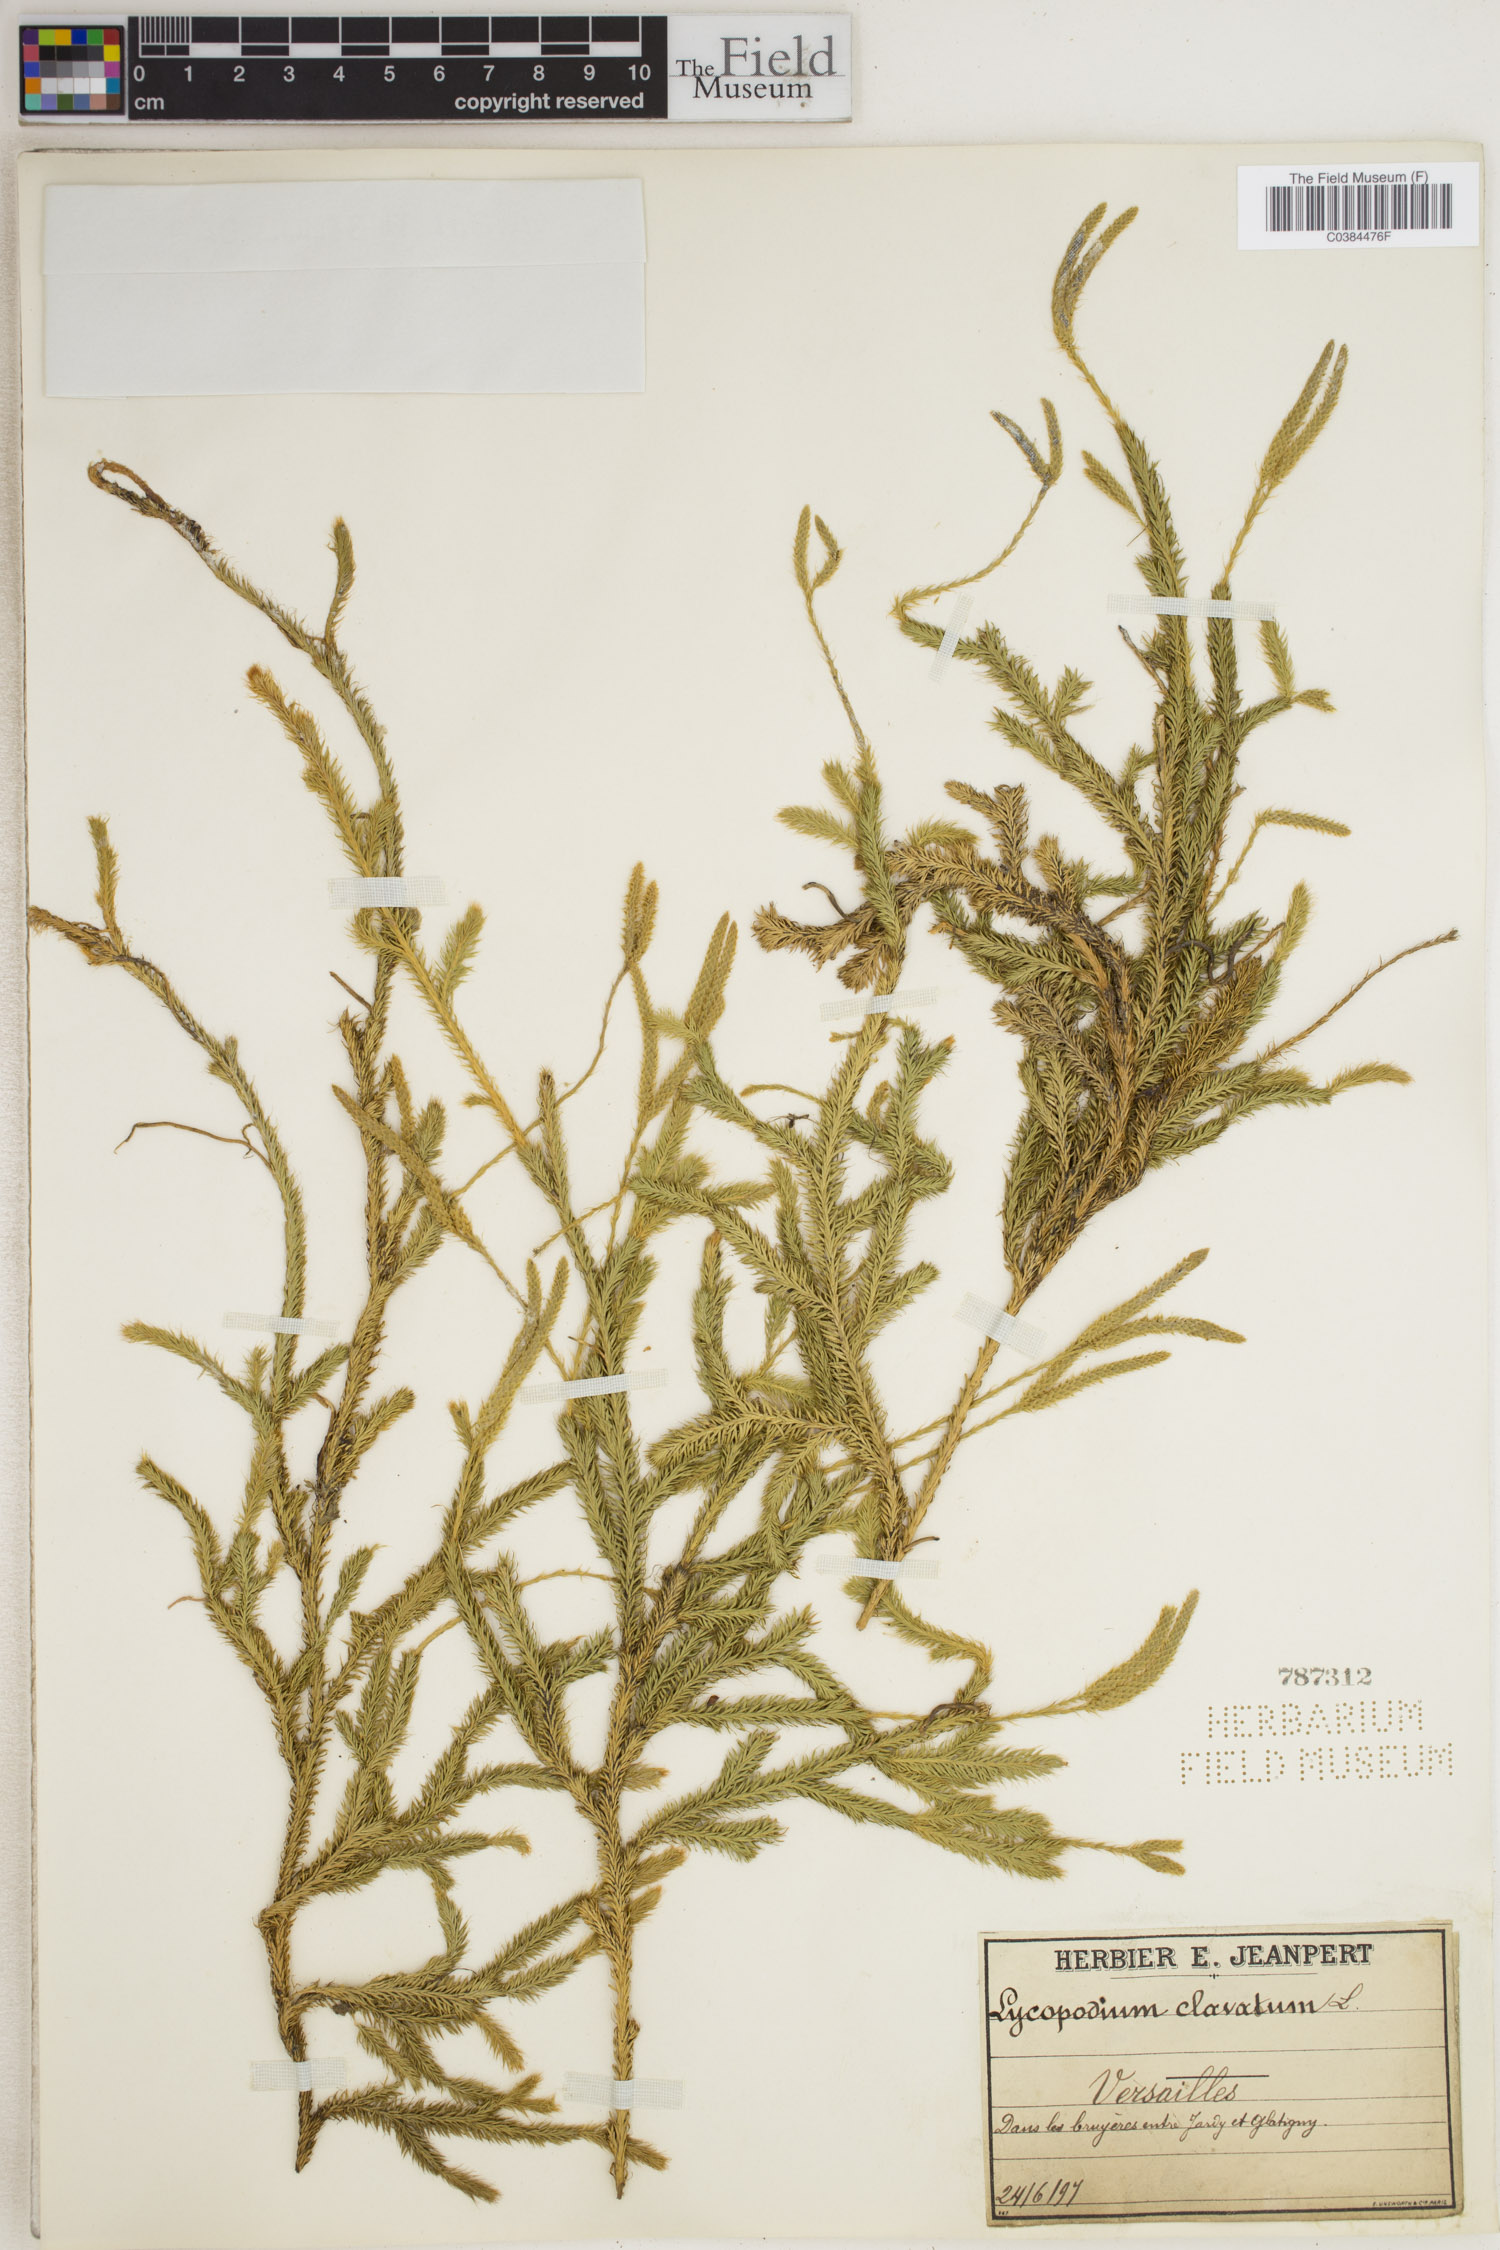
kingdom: Plantae
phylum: Tracheophyta
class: Lycopodiopsida
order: Lycopodiales
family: Lycopodiaceae
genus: Lycopodium
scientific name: Lycopodium clavatum
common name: Stag's-horn clubmoss
